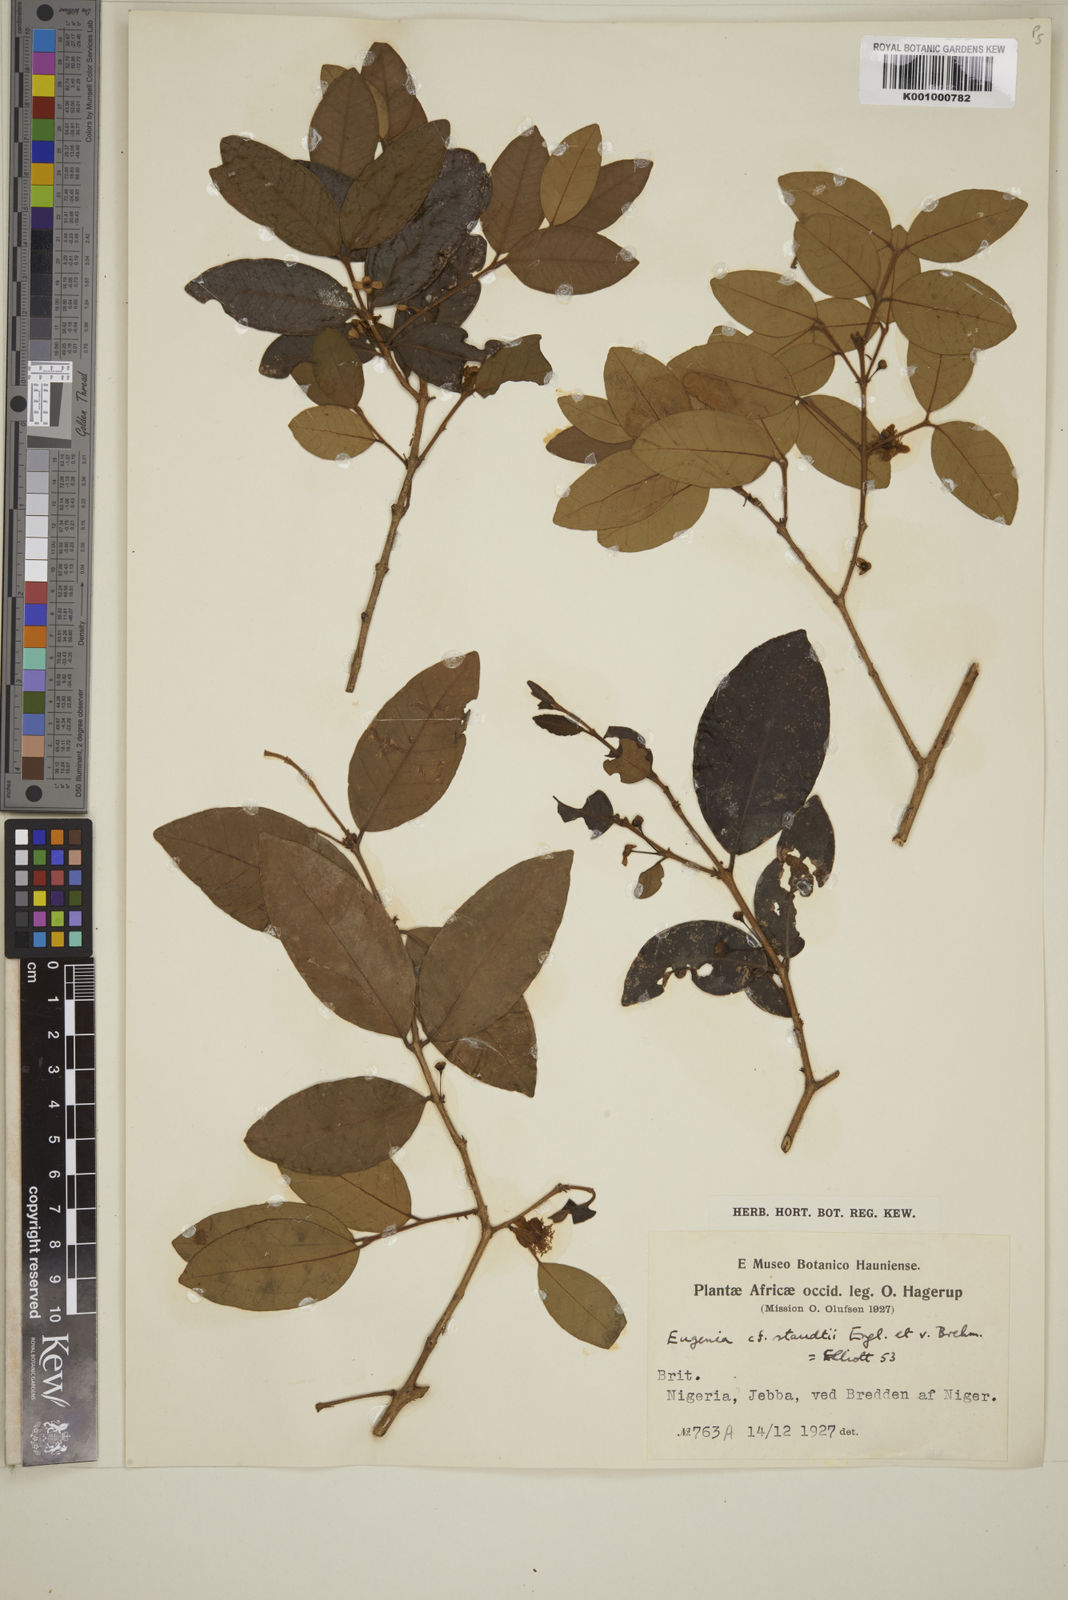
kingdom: Plantae
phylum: Tracheophyta
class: Magnoliopsida
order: Myrtales
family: Myrtaceae
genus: Eugenia
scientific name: Eugenia staudtii
